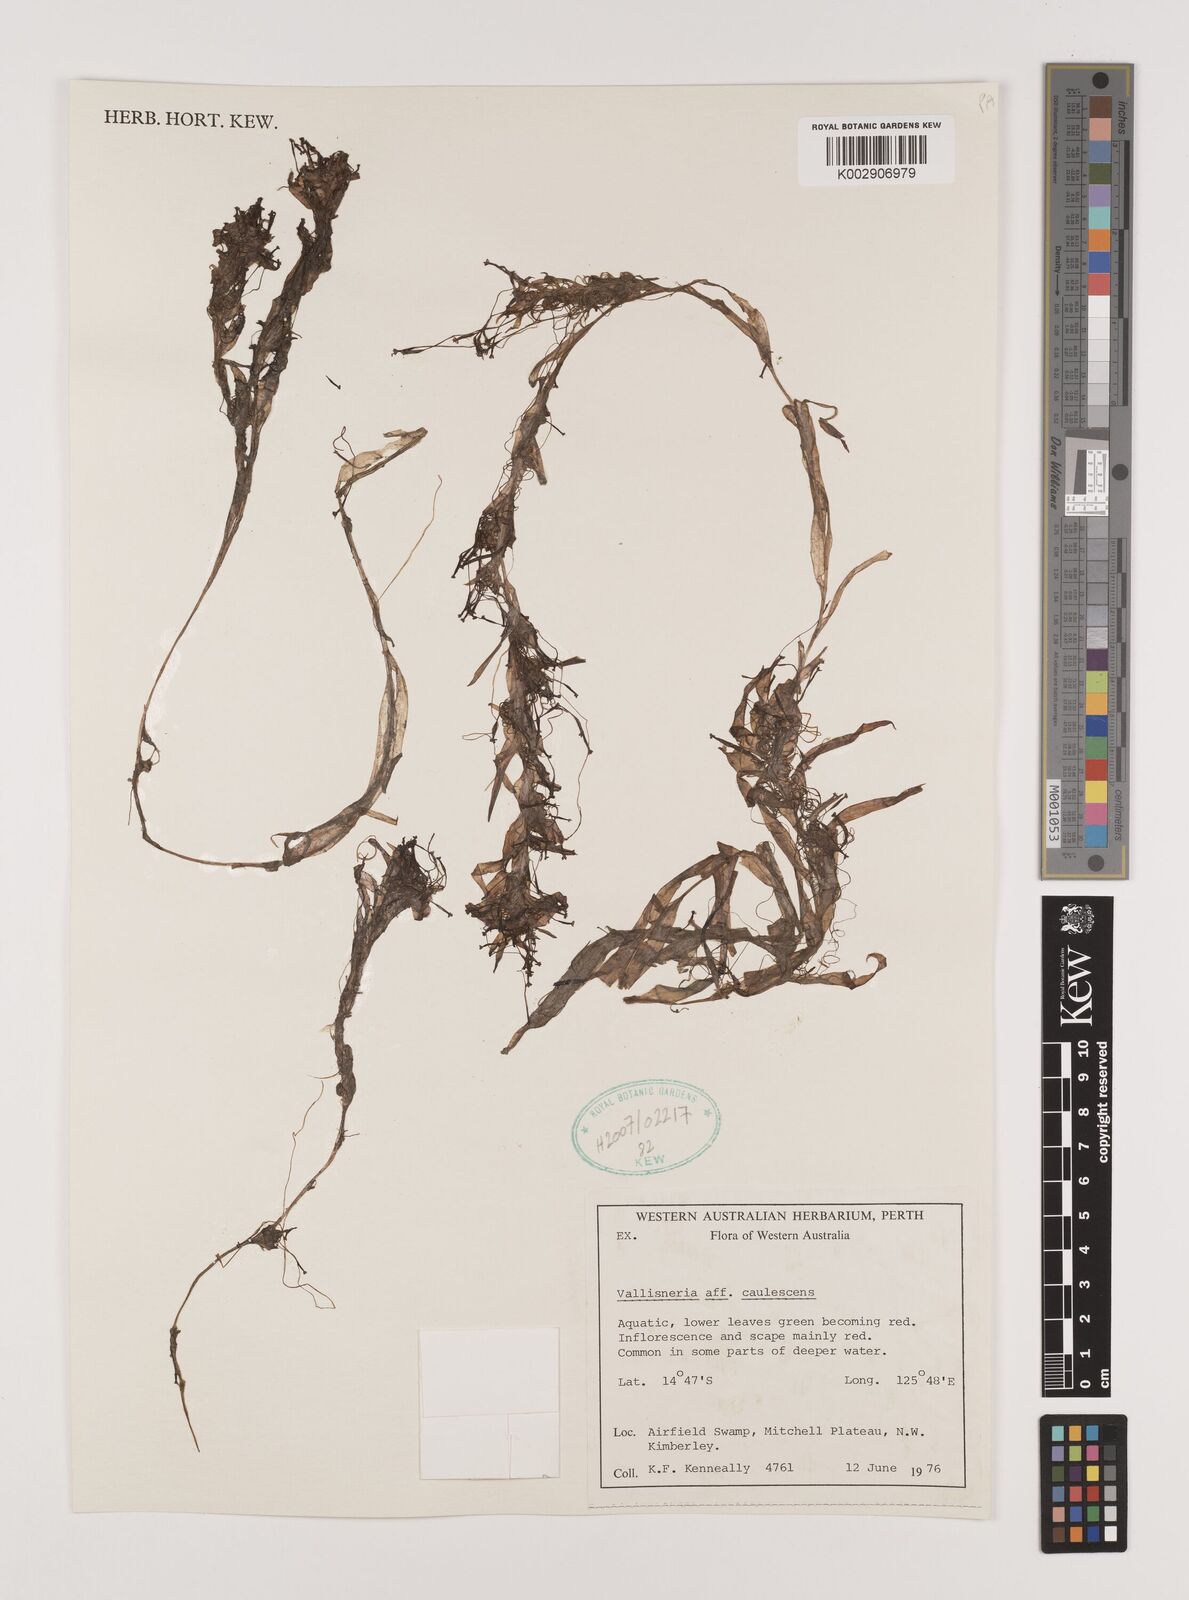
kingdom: Plantae
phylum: Tracheophyta
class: Liliopsida
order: Alismatales
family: Hydrocharitaceae
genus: Vallisneria
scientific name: Vallisneria caulescens
